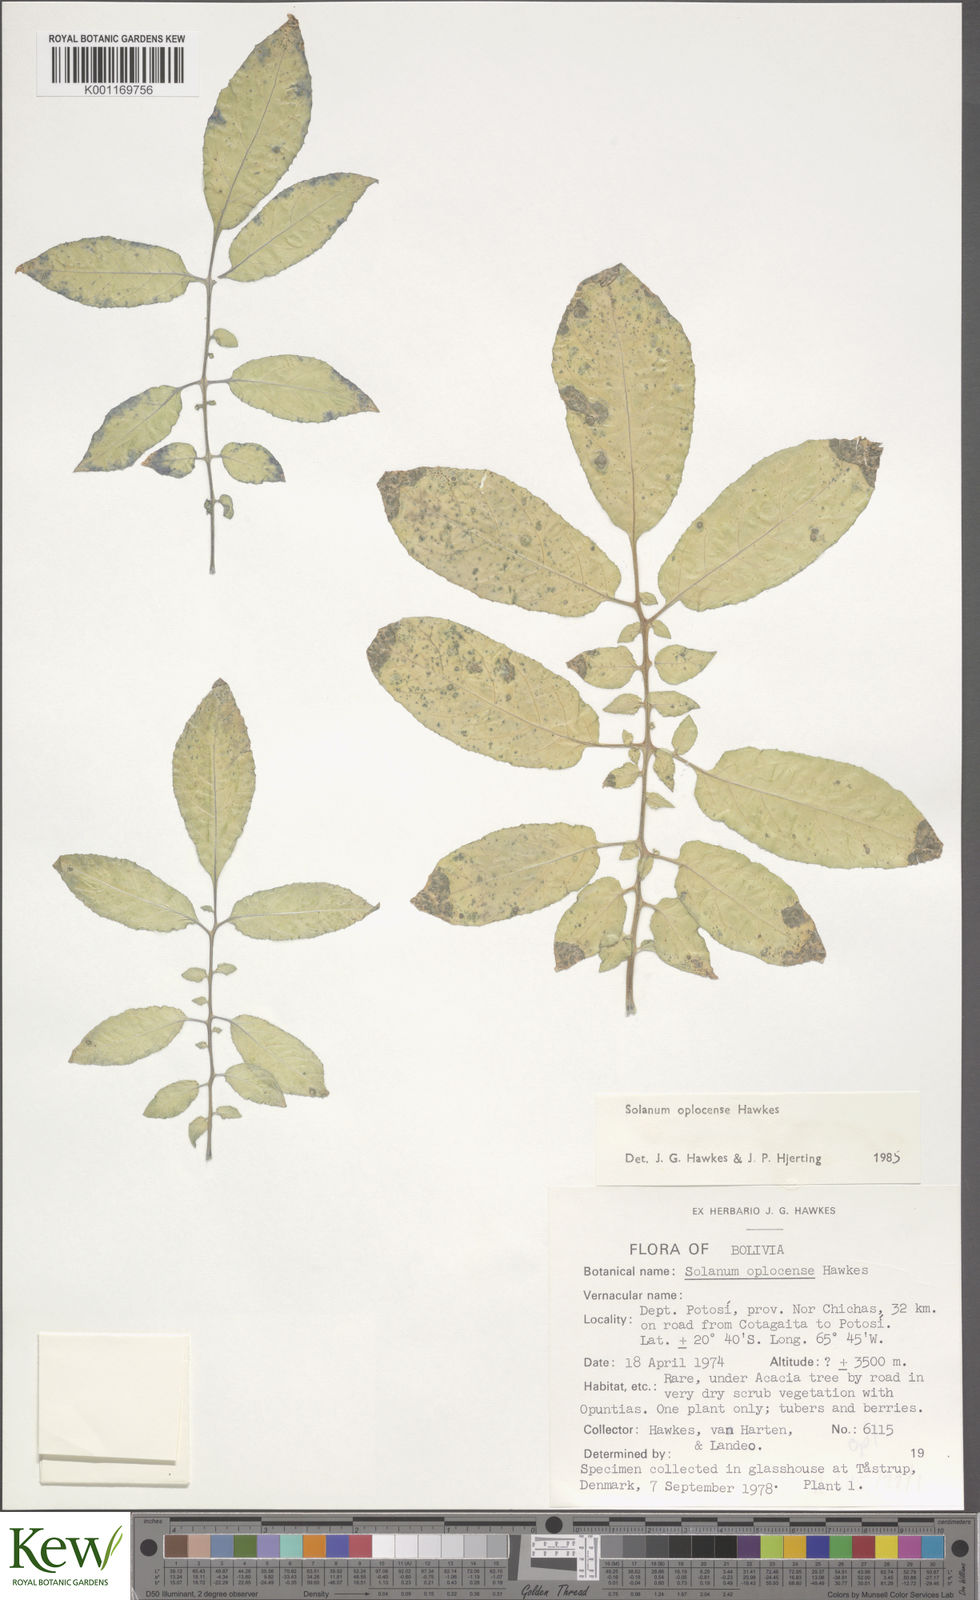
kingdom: Plantae
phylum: Tracheophyta
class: Magnoliopsida
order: Solanales
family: Solanaceae
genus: Solanum
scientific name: Solanum brevicaule
